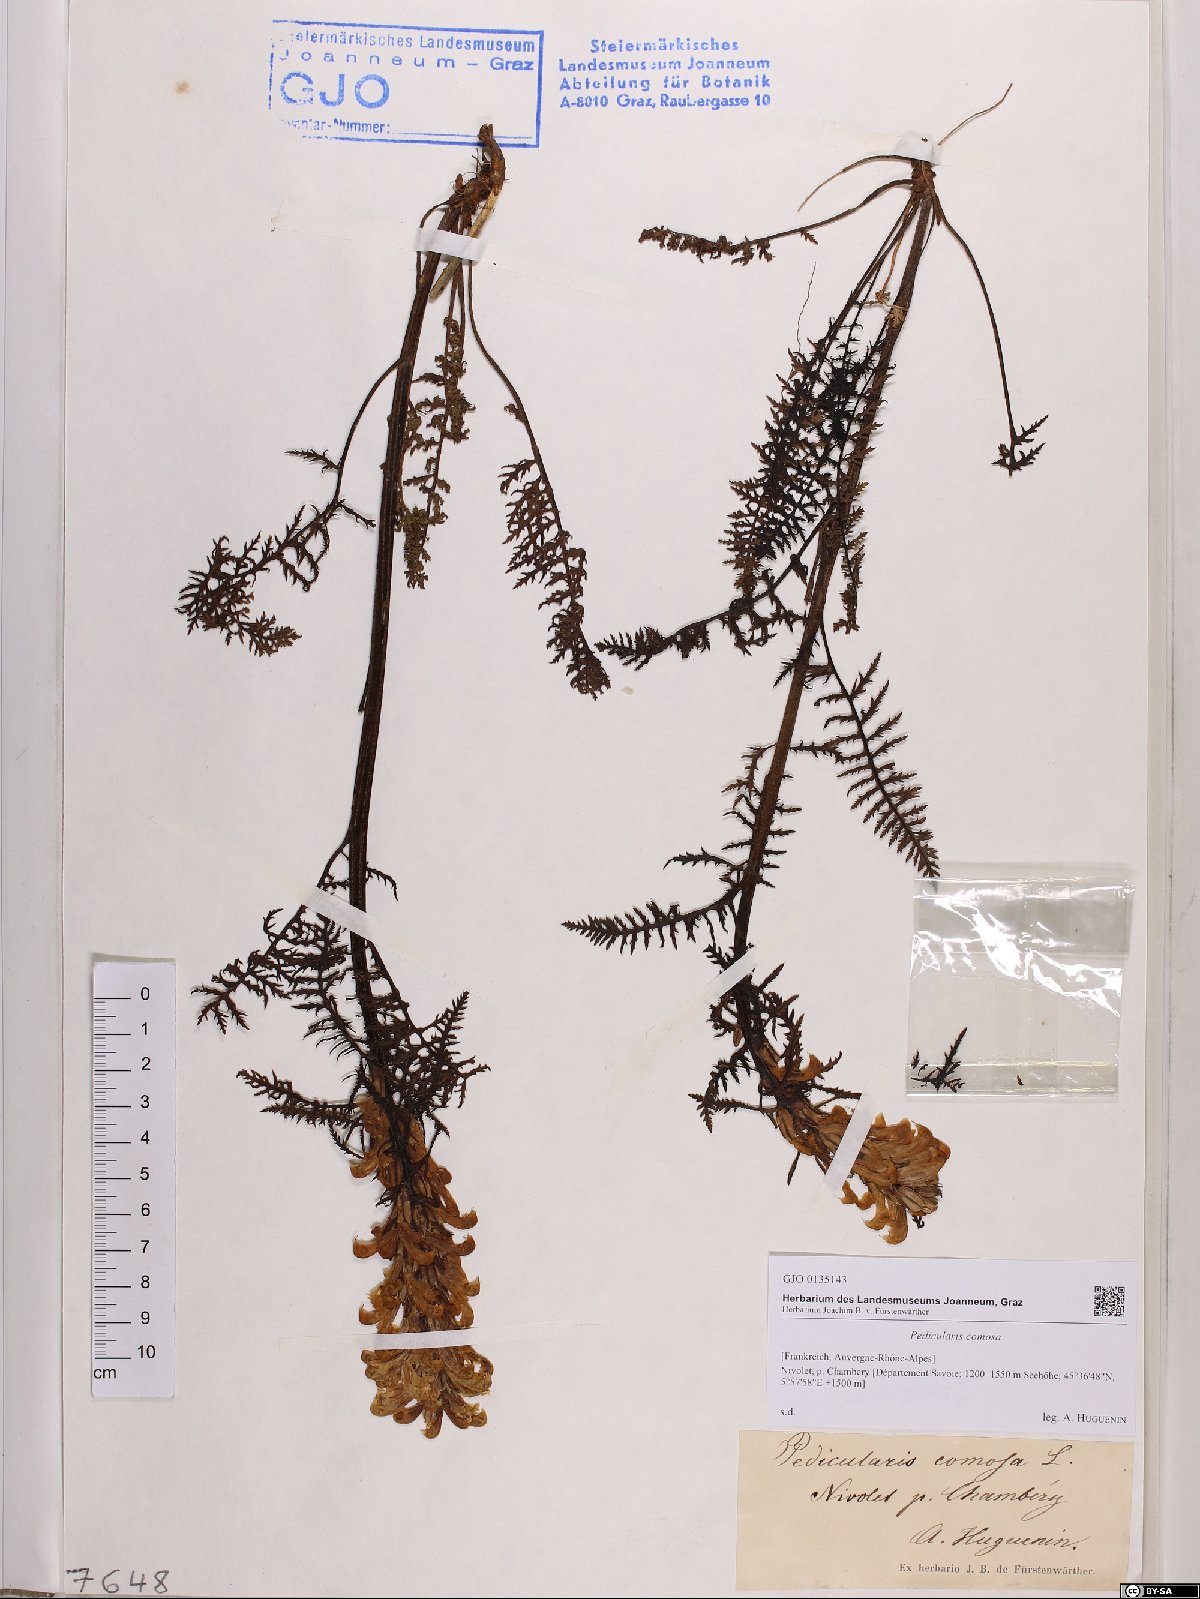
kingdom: Plantae
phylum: Tracheophyta
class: Magnoliopsida
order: Lamiales
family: Orobanchaceae
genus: Pedicularis
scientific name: Pedicularis comosa
